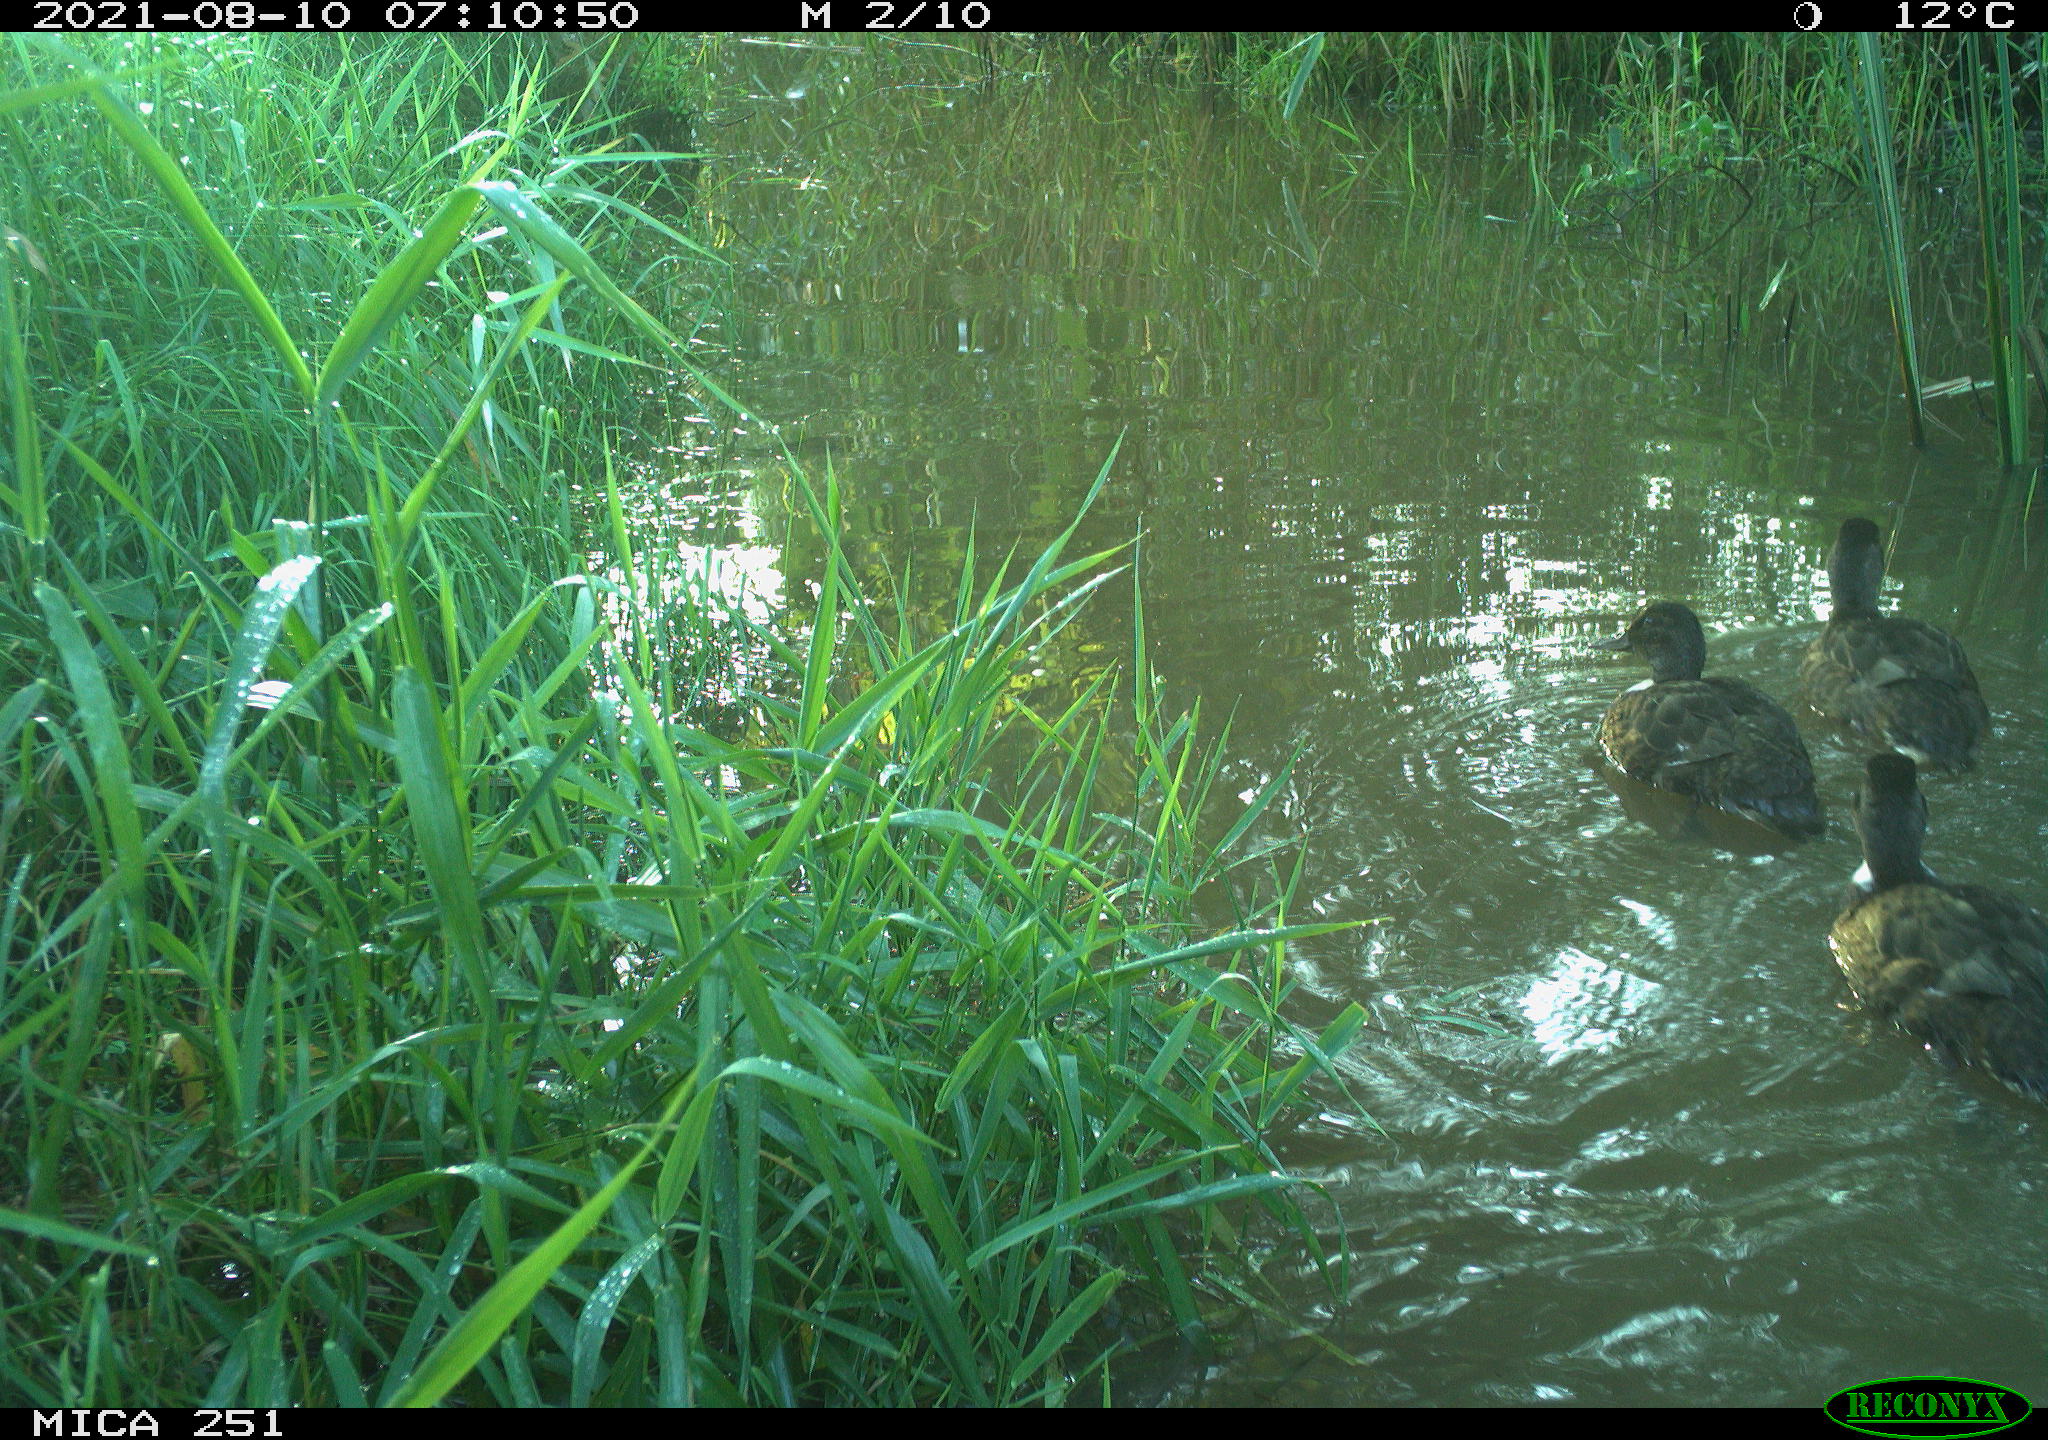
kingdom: Animalia
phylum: Chordata
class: Aves
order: Anseriformes
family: Anatidae
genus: Anas
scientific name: Anas platyrhynchos
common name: Mallard
